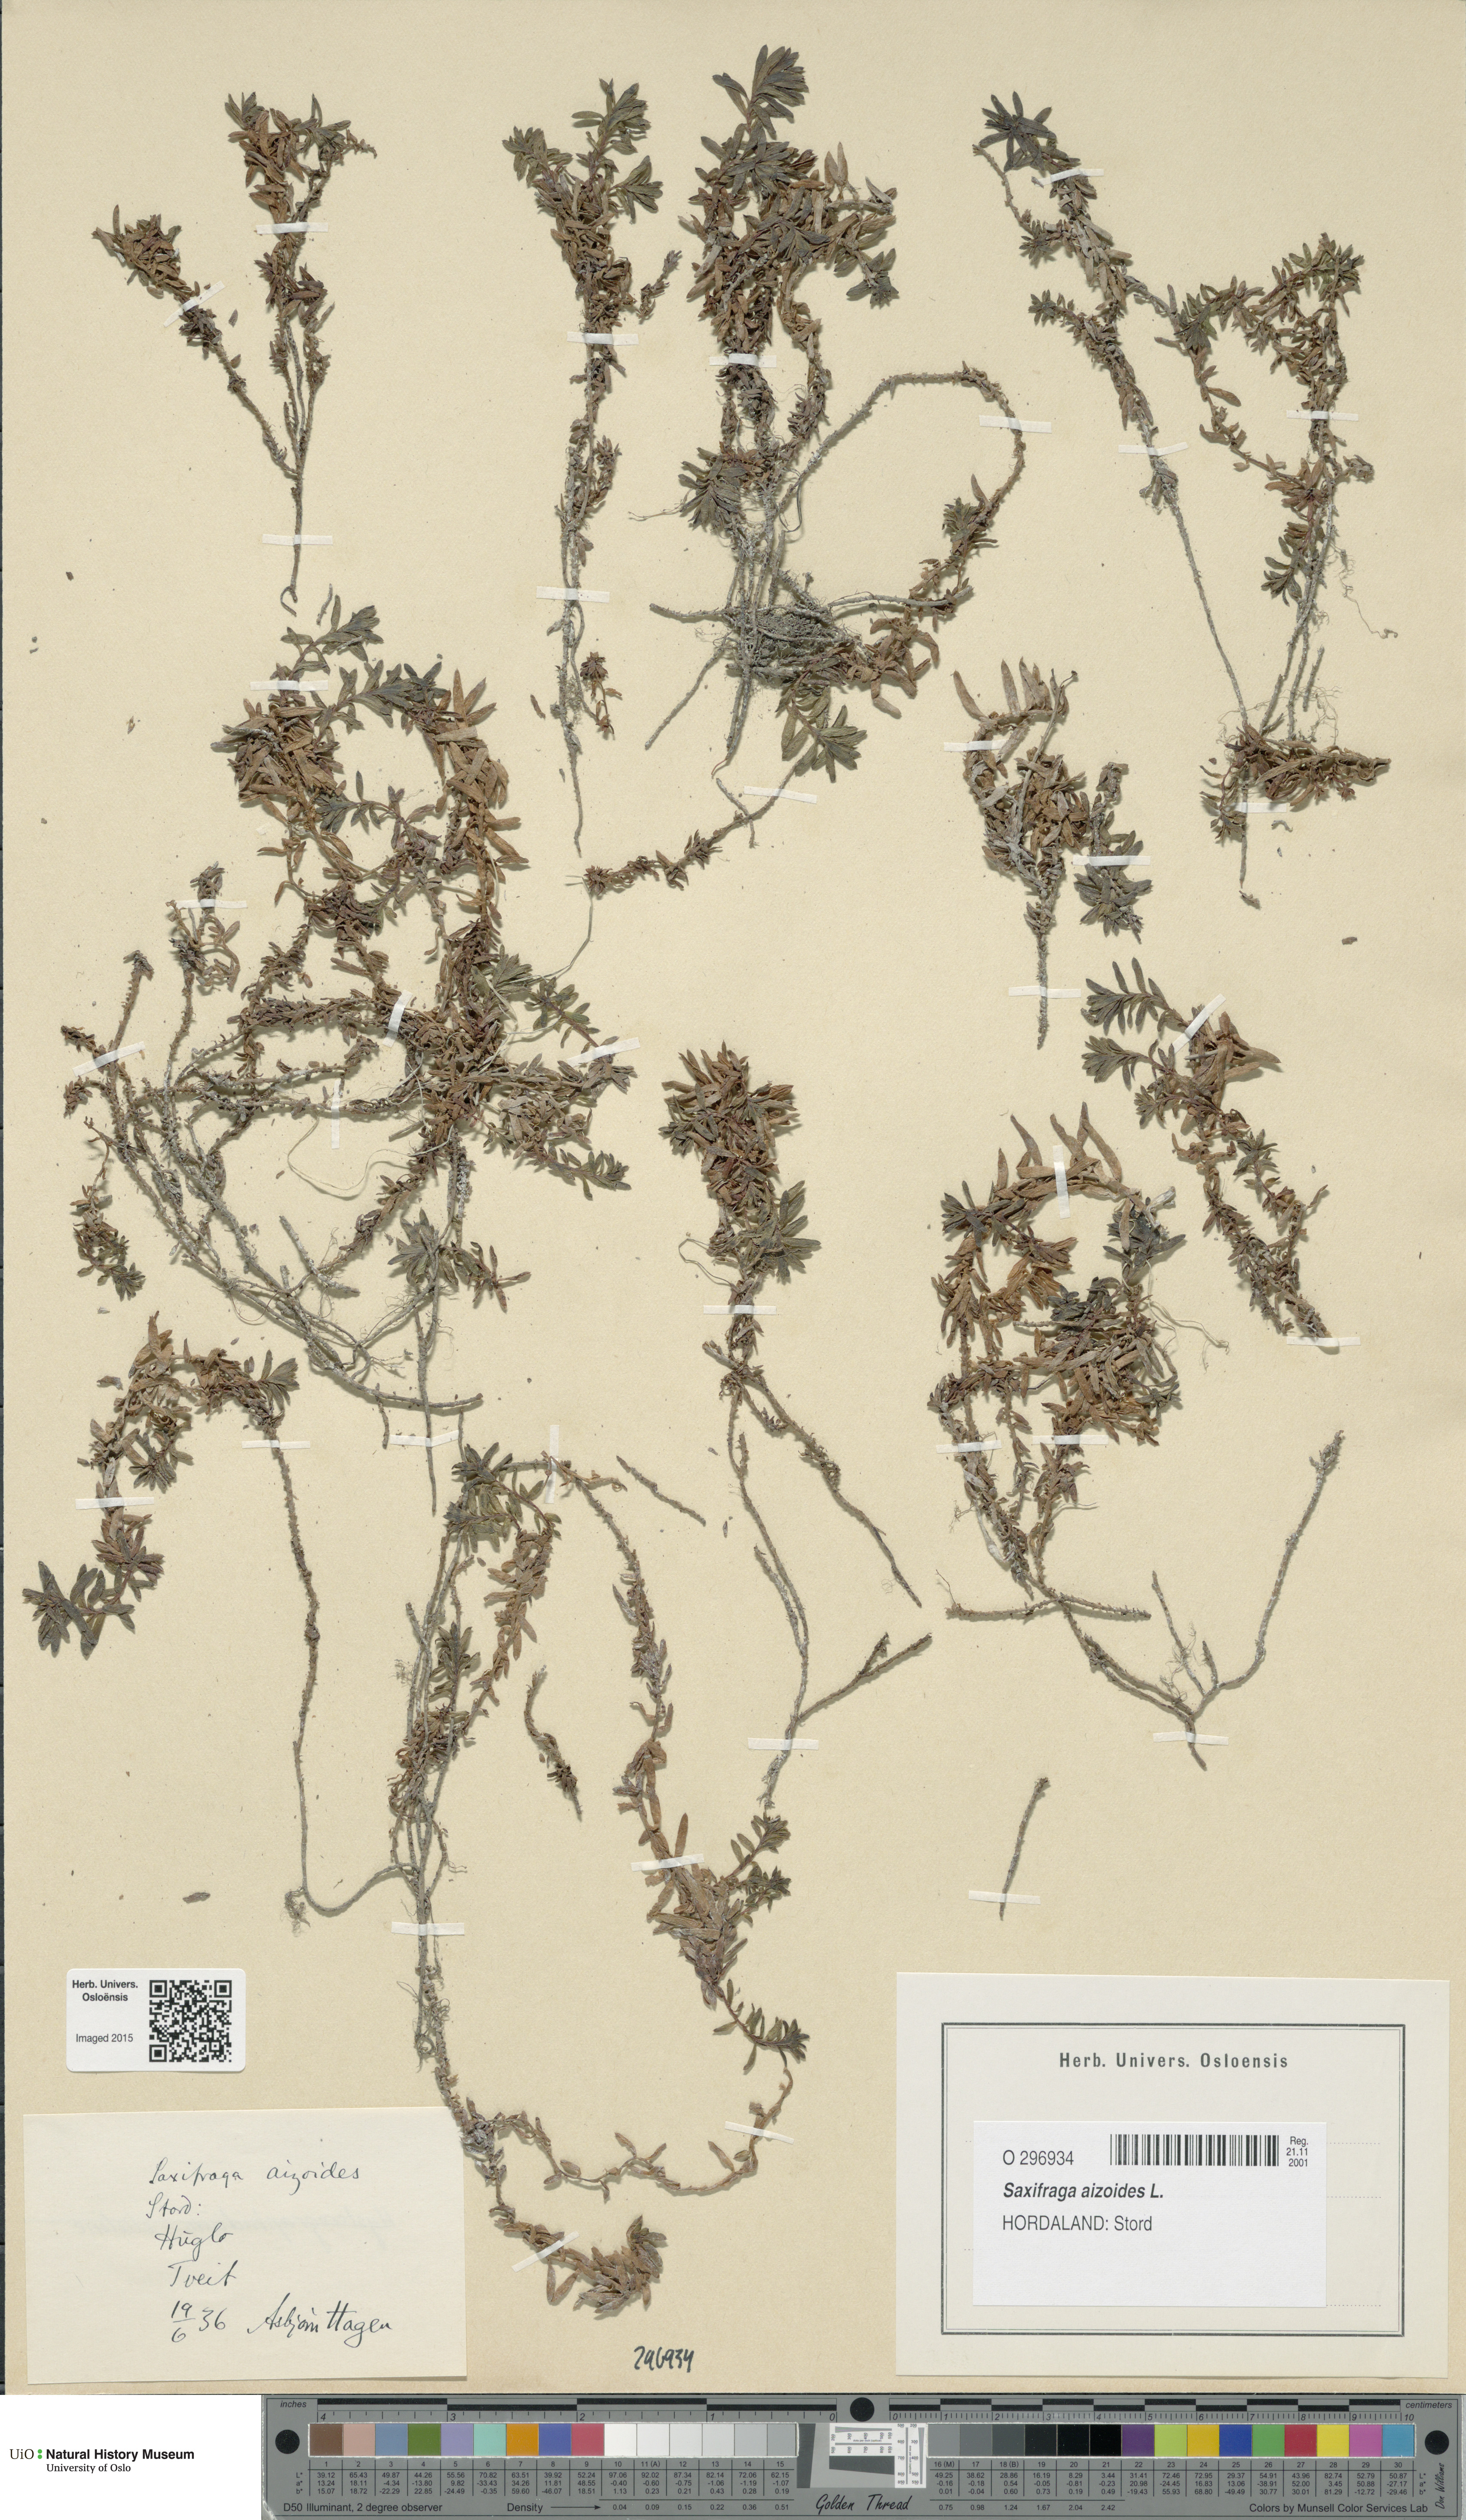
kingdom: Plantae
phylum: Tracheophyta
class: Magnoliopsida
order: Saxifragales
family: Saxifragaceae
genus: Saxifraga
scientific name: Saxifraga aizoides
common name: Yellow mountain saxifrage
